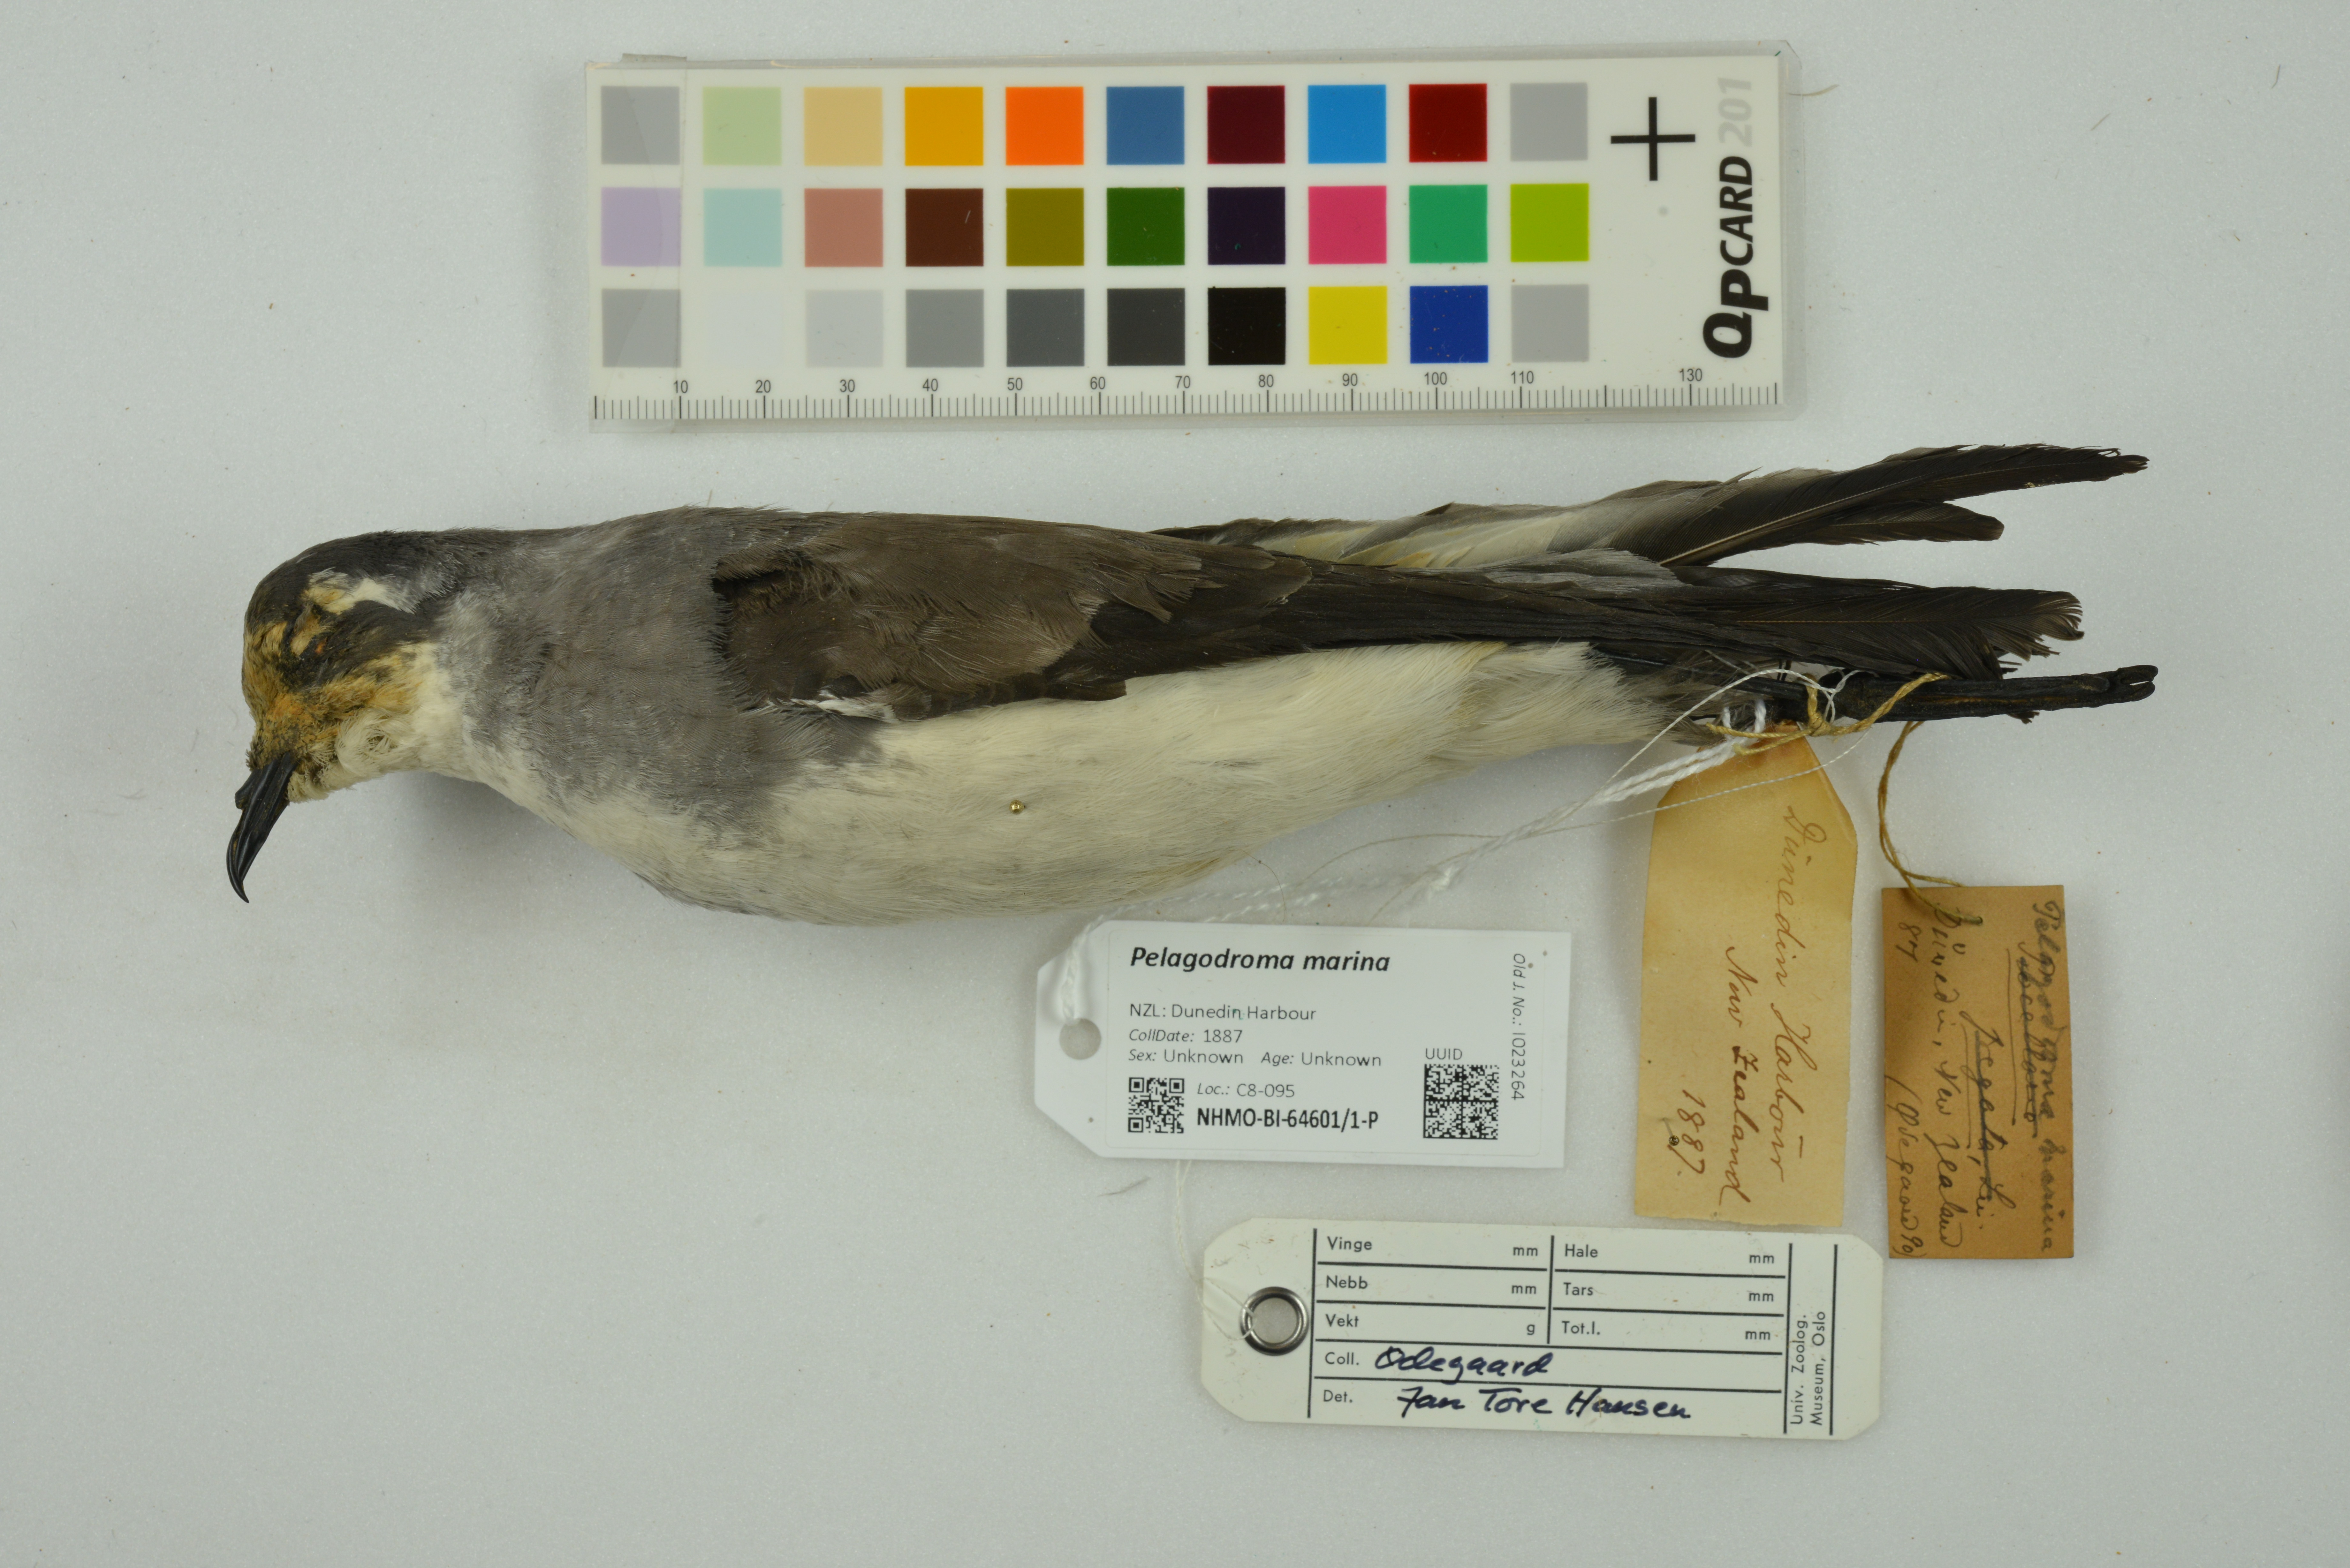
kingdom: Animalia
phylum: Chordata
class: Aves
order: Procellariiformes
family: Hydrobatidae
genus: Pelagodroma
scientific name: Pelagodroma marina
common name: White-faced storm-petrel
